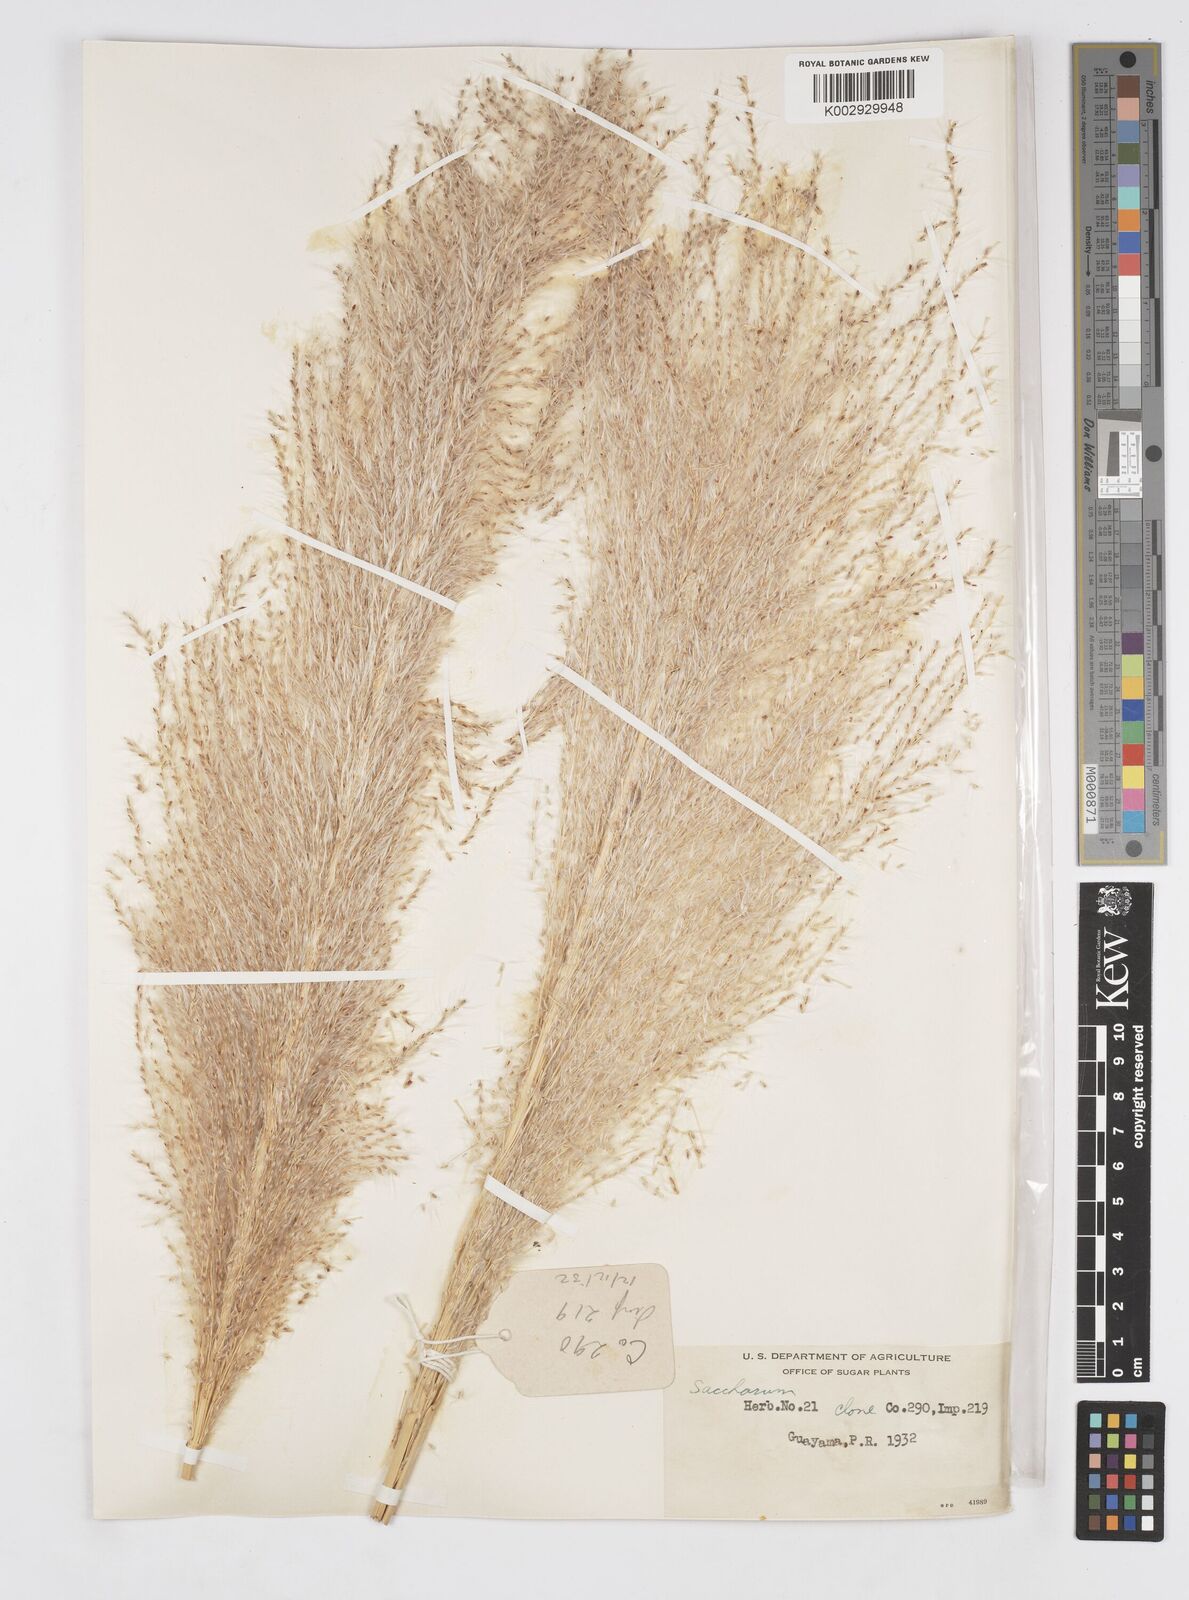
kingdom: Plantae
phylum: Tracheophyta
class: Liliopsida
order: Poales
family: Poaceae
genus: Saccharum
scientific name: Saccharum officinarum
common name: Sugarcane
